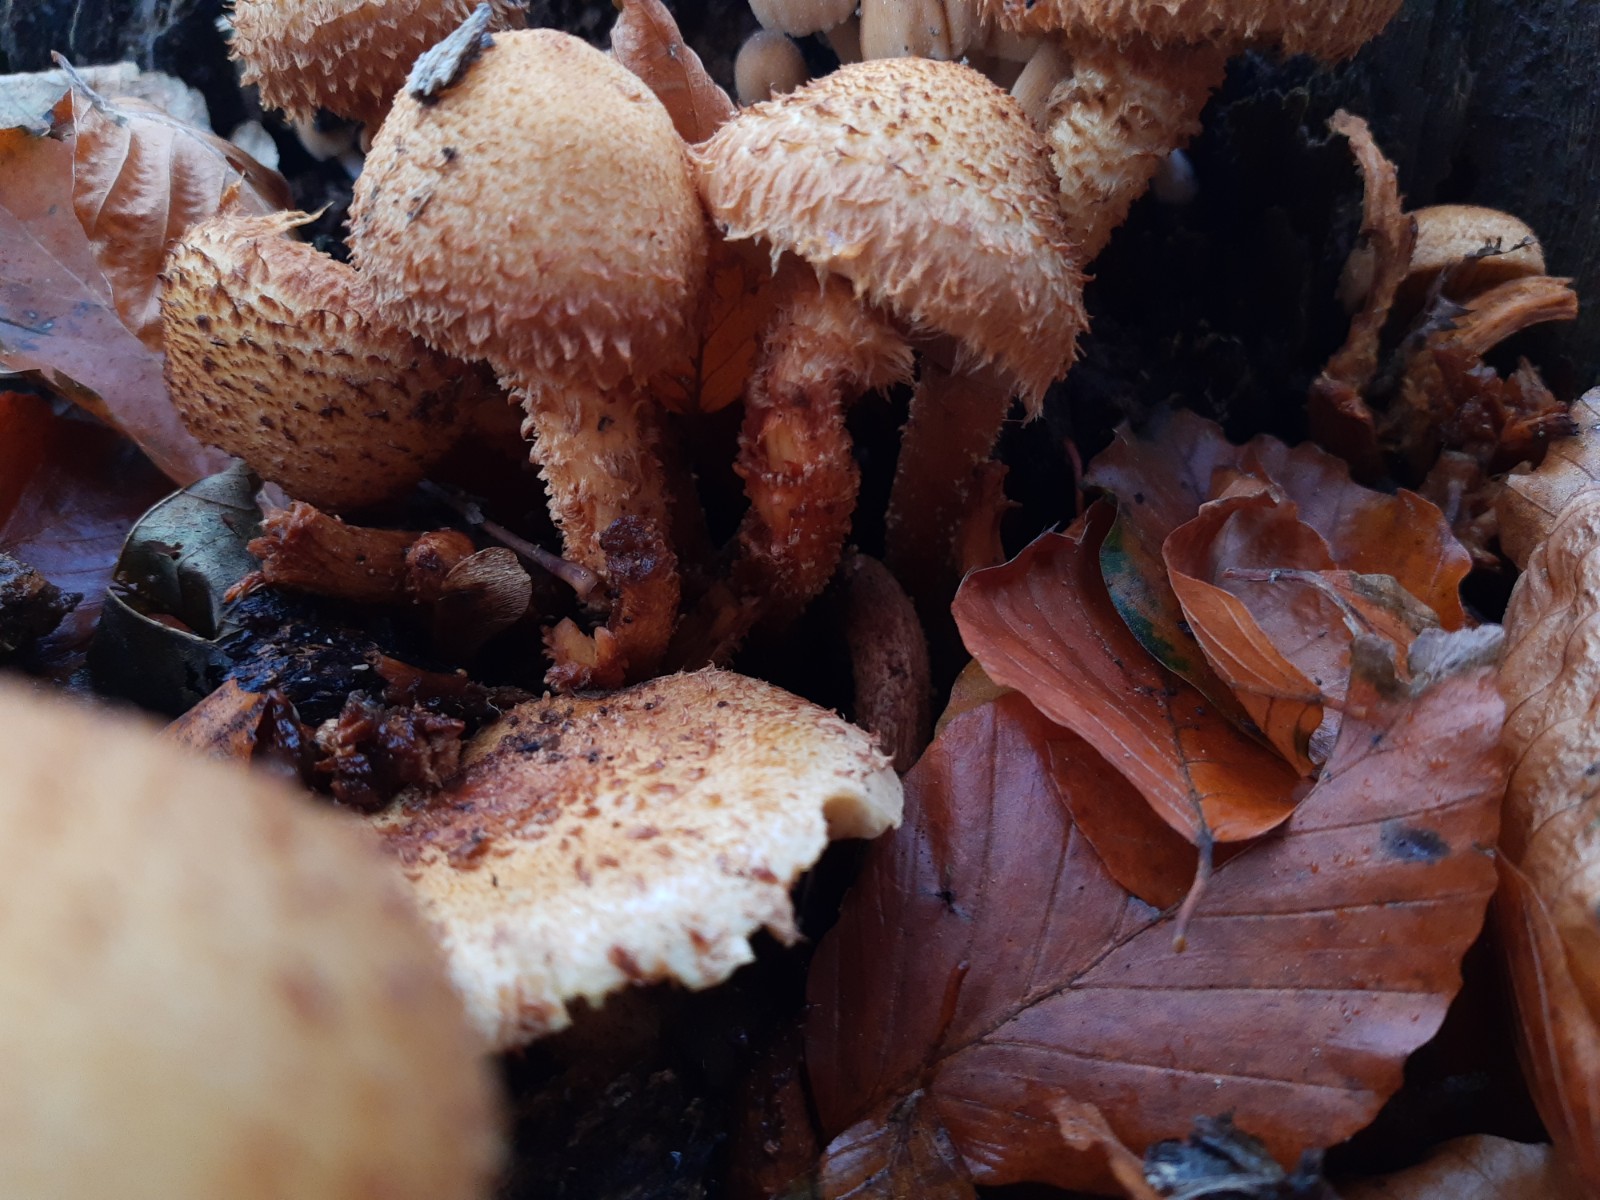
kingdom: Fungi
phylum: Basidiomycota
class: Agaricomycetes
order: Agaricales
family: Strophariaceae
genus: Pholiota
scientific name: Pholiota squarrosa
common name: krumskællet skælhat
